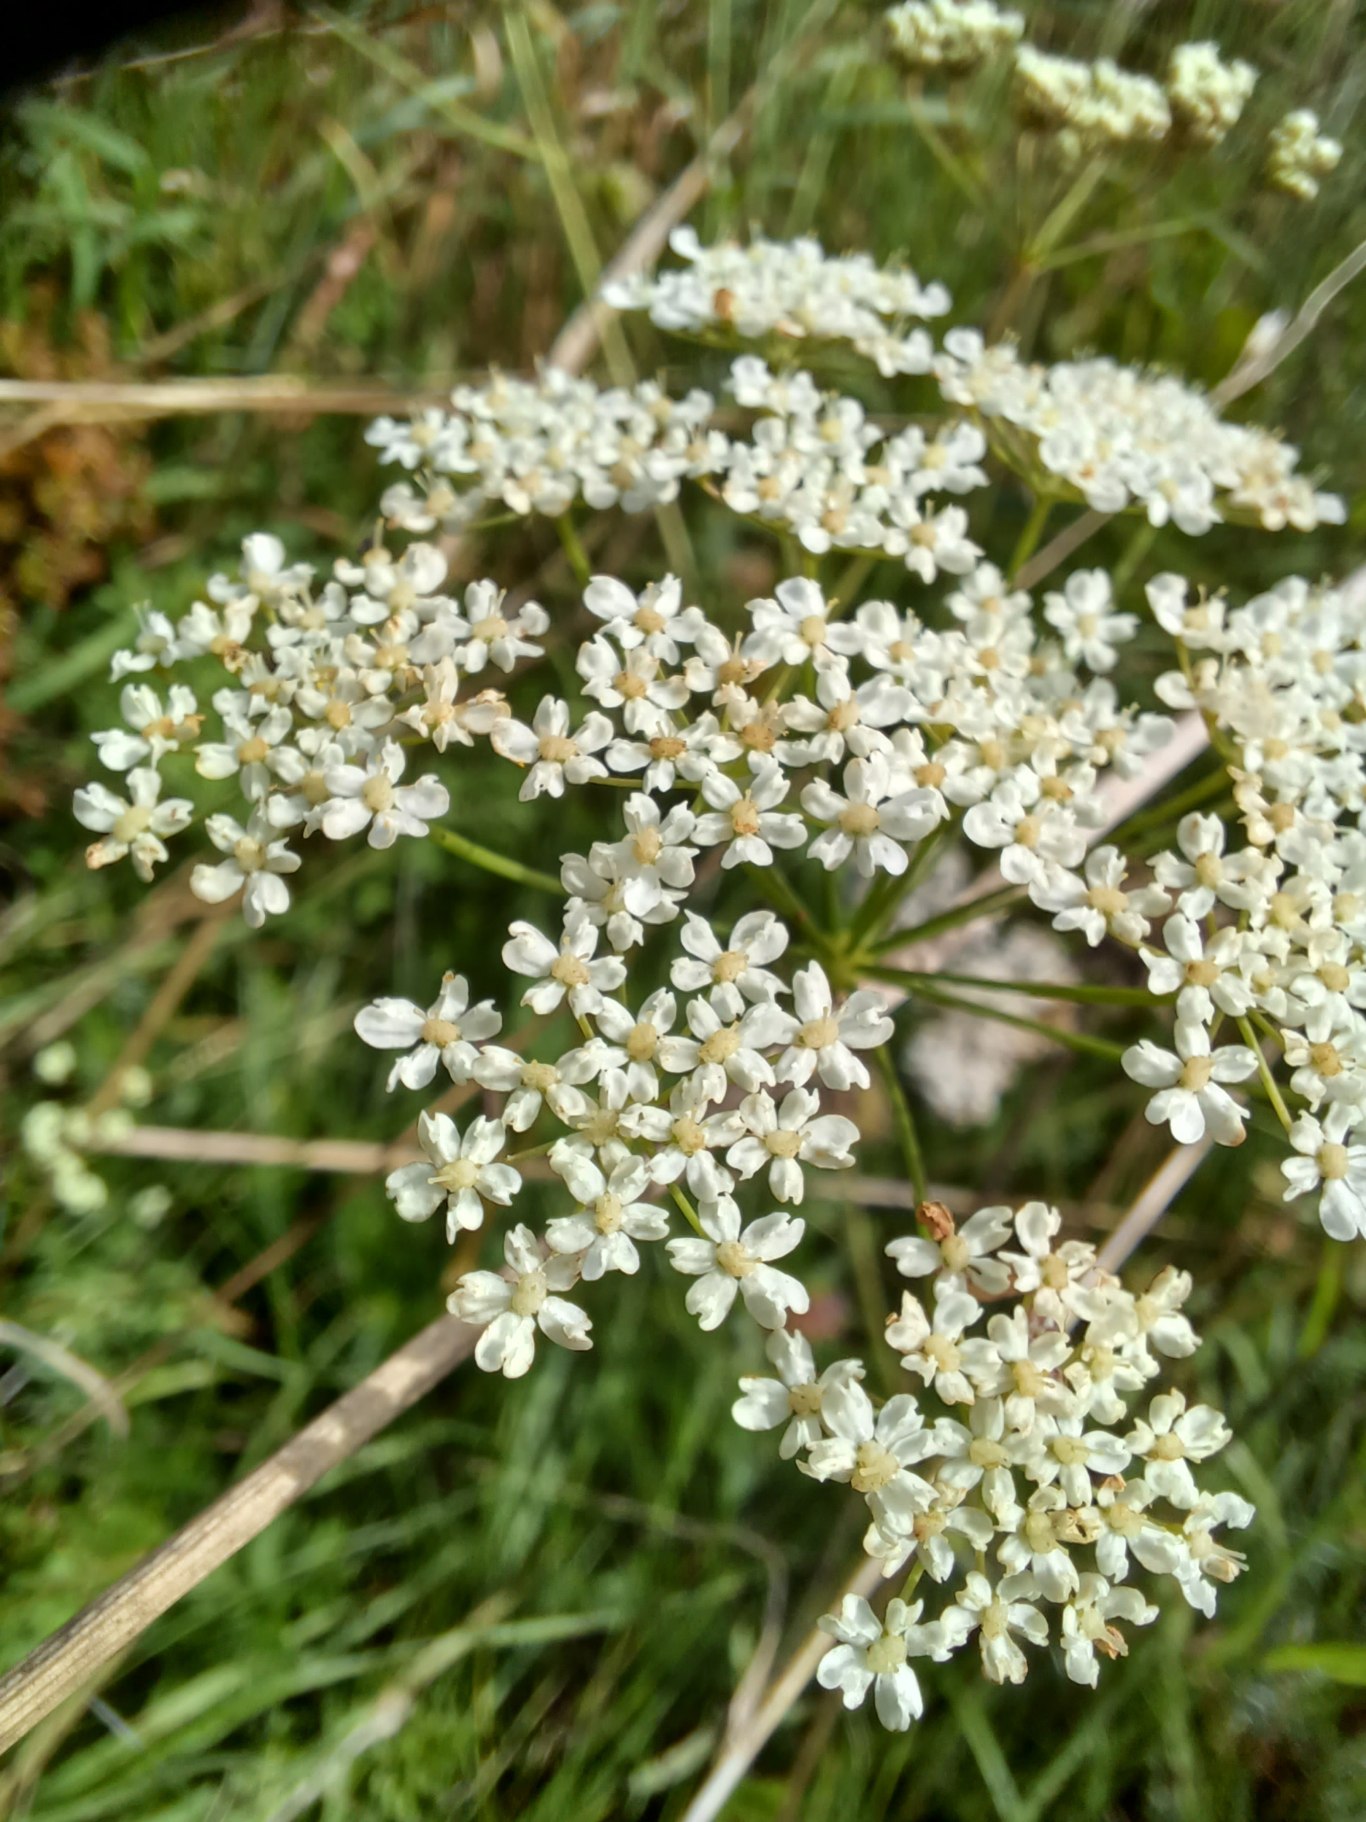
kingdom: Plantae
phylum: Tracheophyta
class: Magnoliopsida
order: Apiales
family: Apiaceae
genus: Pimpinella
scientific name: Pimpinella saxifraga
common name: Almindelig pimpinelle
